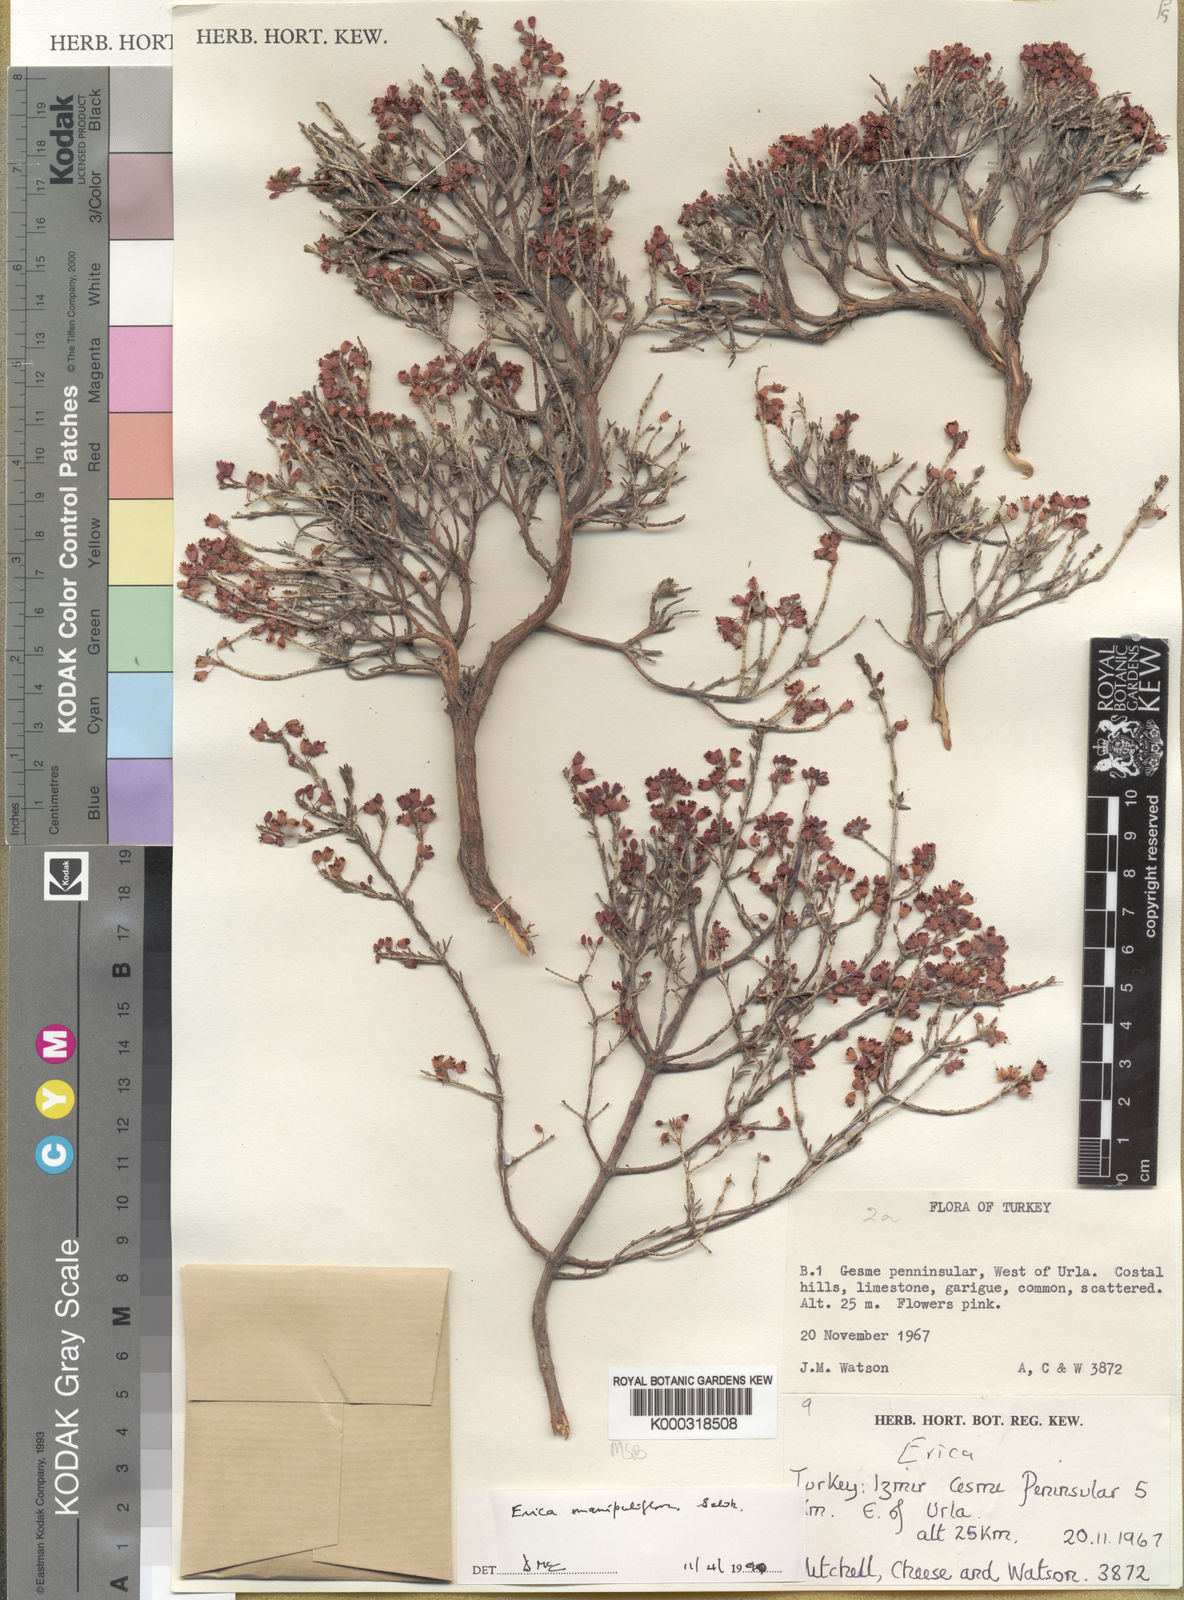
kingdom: Plantae
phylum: Tracheophyta
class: Magnoliopsida
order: Ericales
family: Ericaceae
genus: Erica
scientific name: Erica manipuliflora
